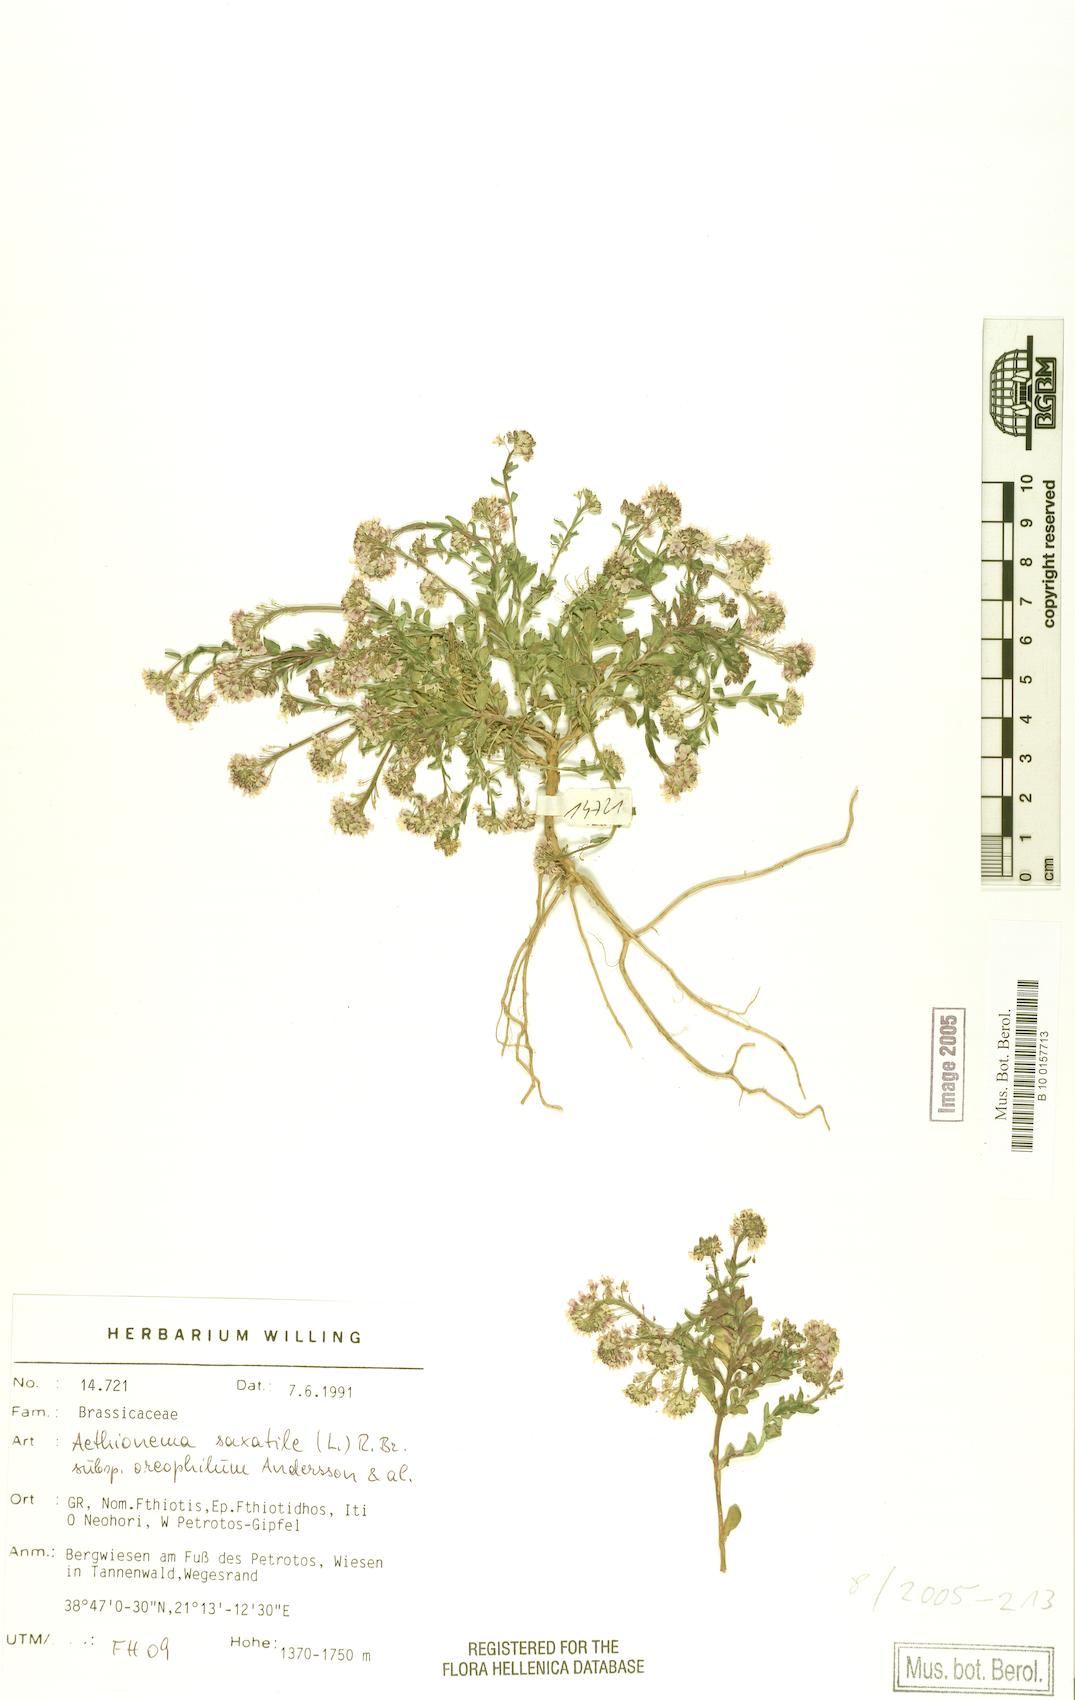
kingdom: Plantae
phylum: Tracheophyta
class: Magnoliopsida
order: Brassicales
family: Brassicaceae
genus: Aethionema
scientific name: Aethionema saxatile
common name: Burnt candytuft
